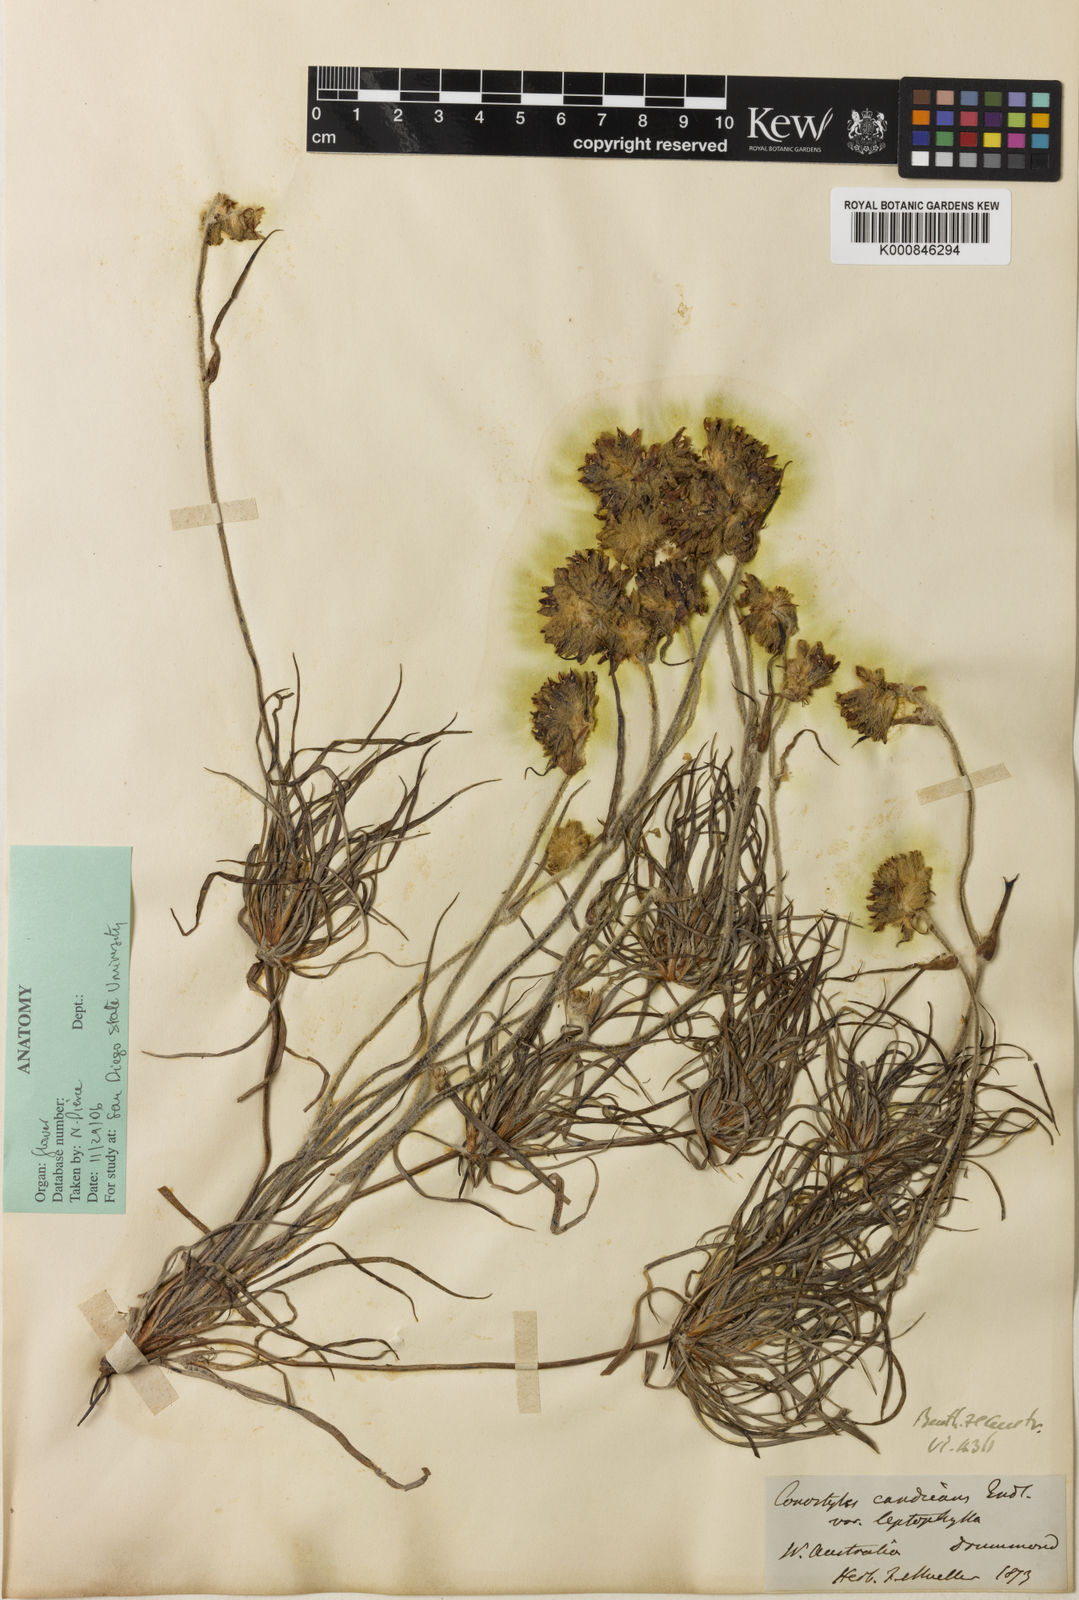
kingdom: Plantae
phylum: Tracheophyta
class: Liliopsida
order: Commelinales
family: Haemodoraceae
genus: Conostylis
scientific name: Conostylis candicans
